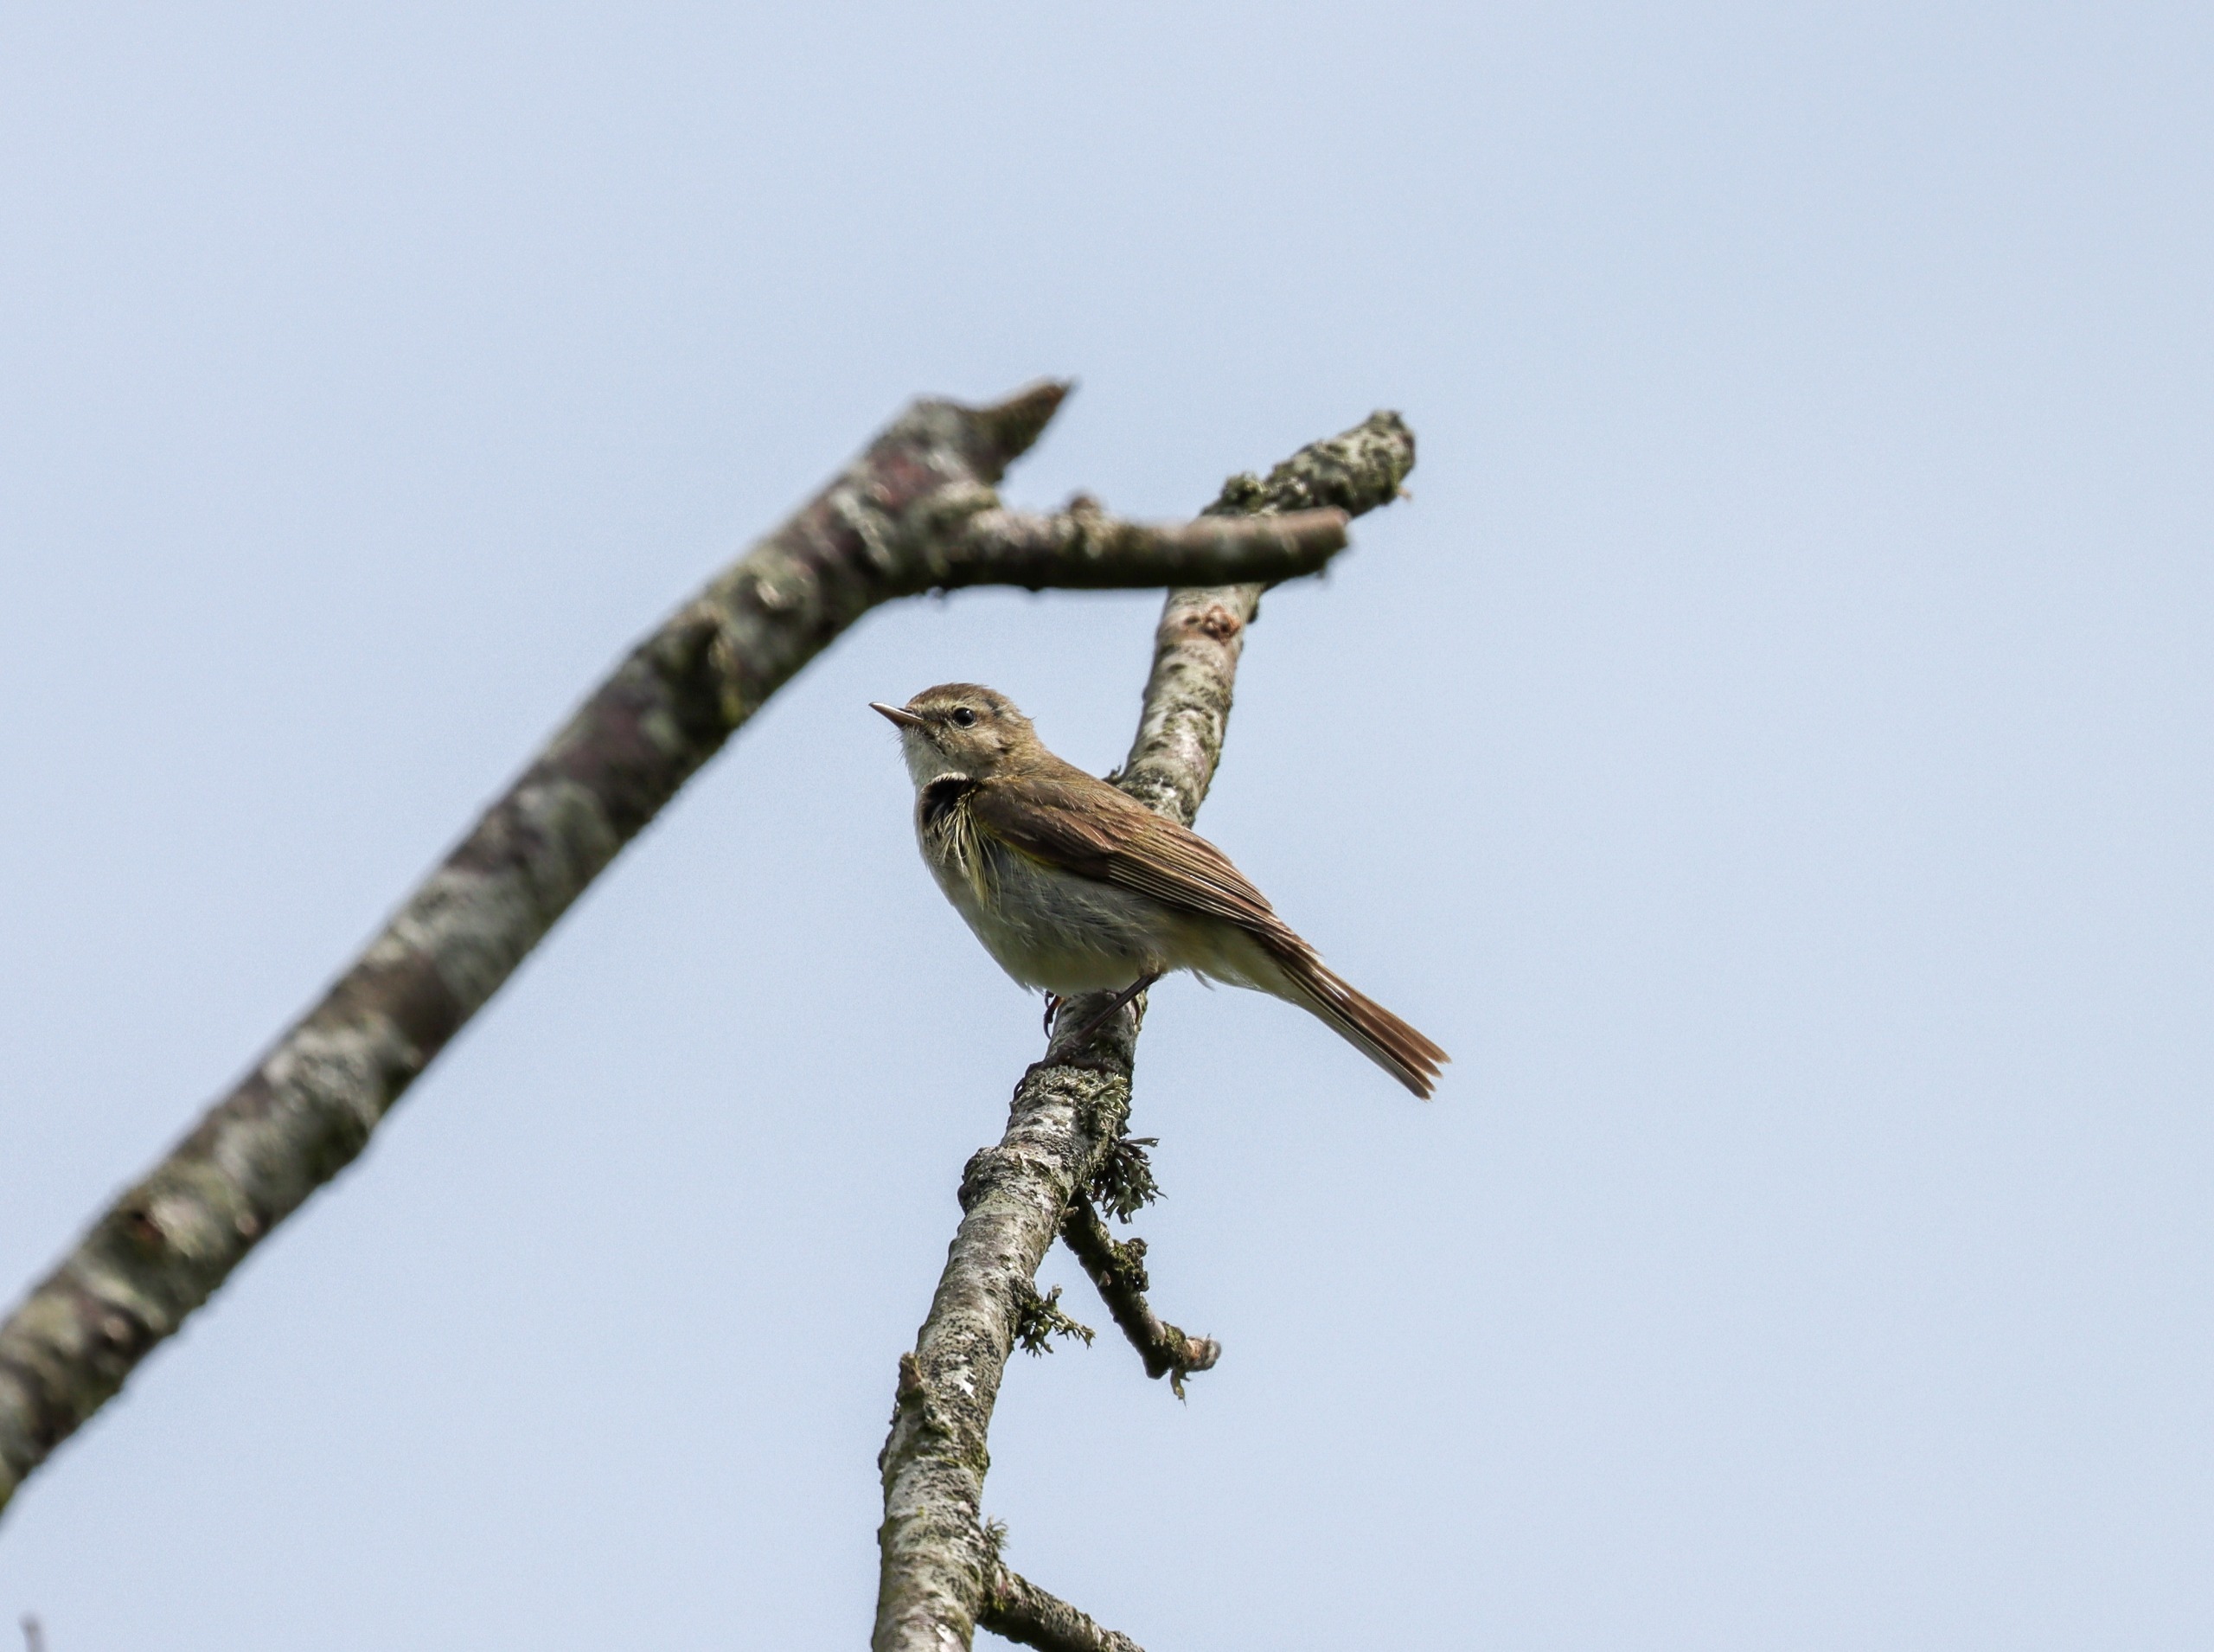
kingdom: Animalia
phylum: Chordata
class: Aves
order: Passeriformes
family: Phylloscopidae
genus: Phylloscopus
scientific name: Phylloscopus collybita
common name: Gransanger
